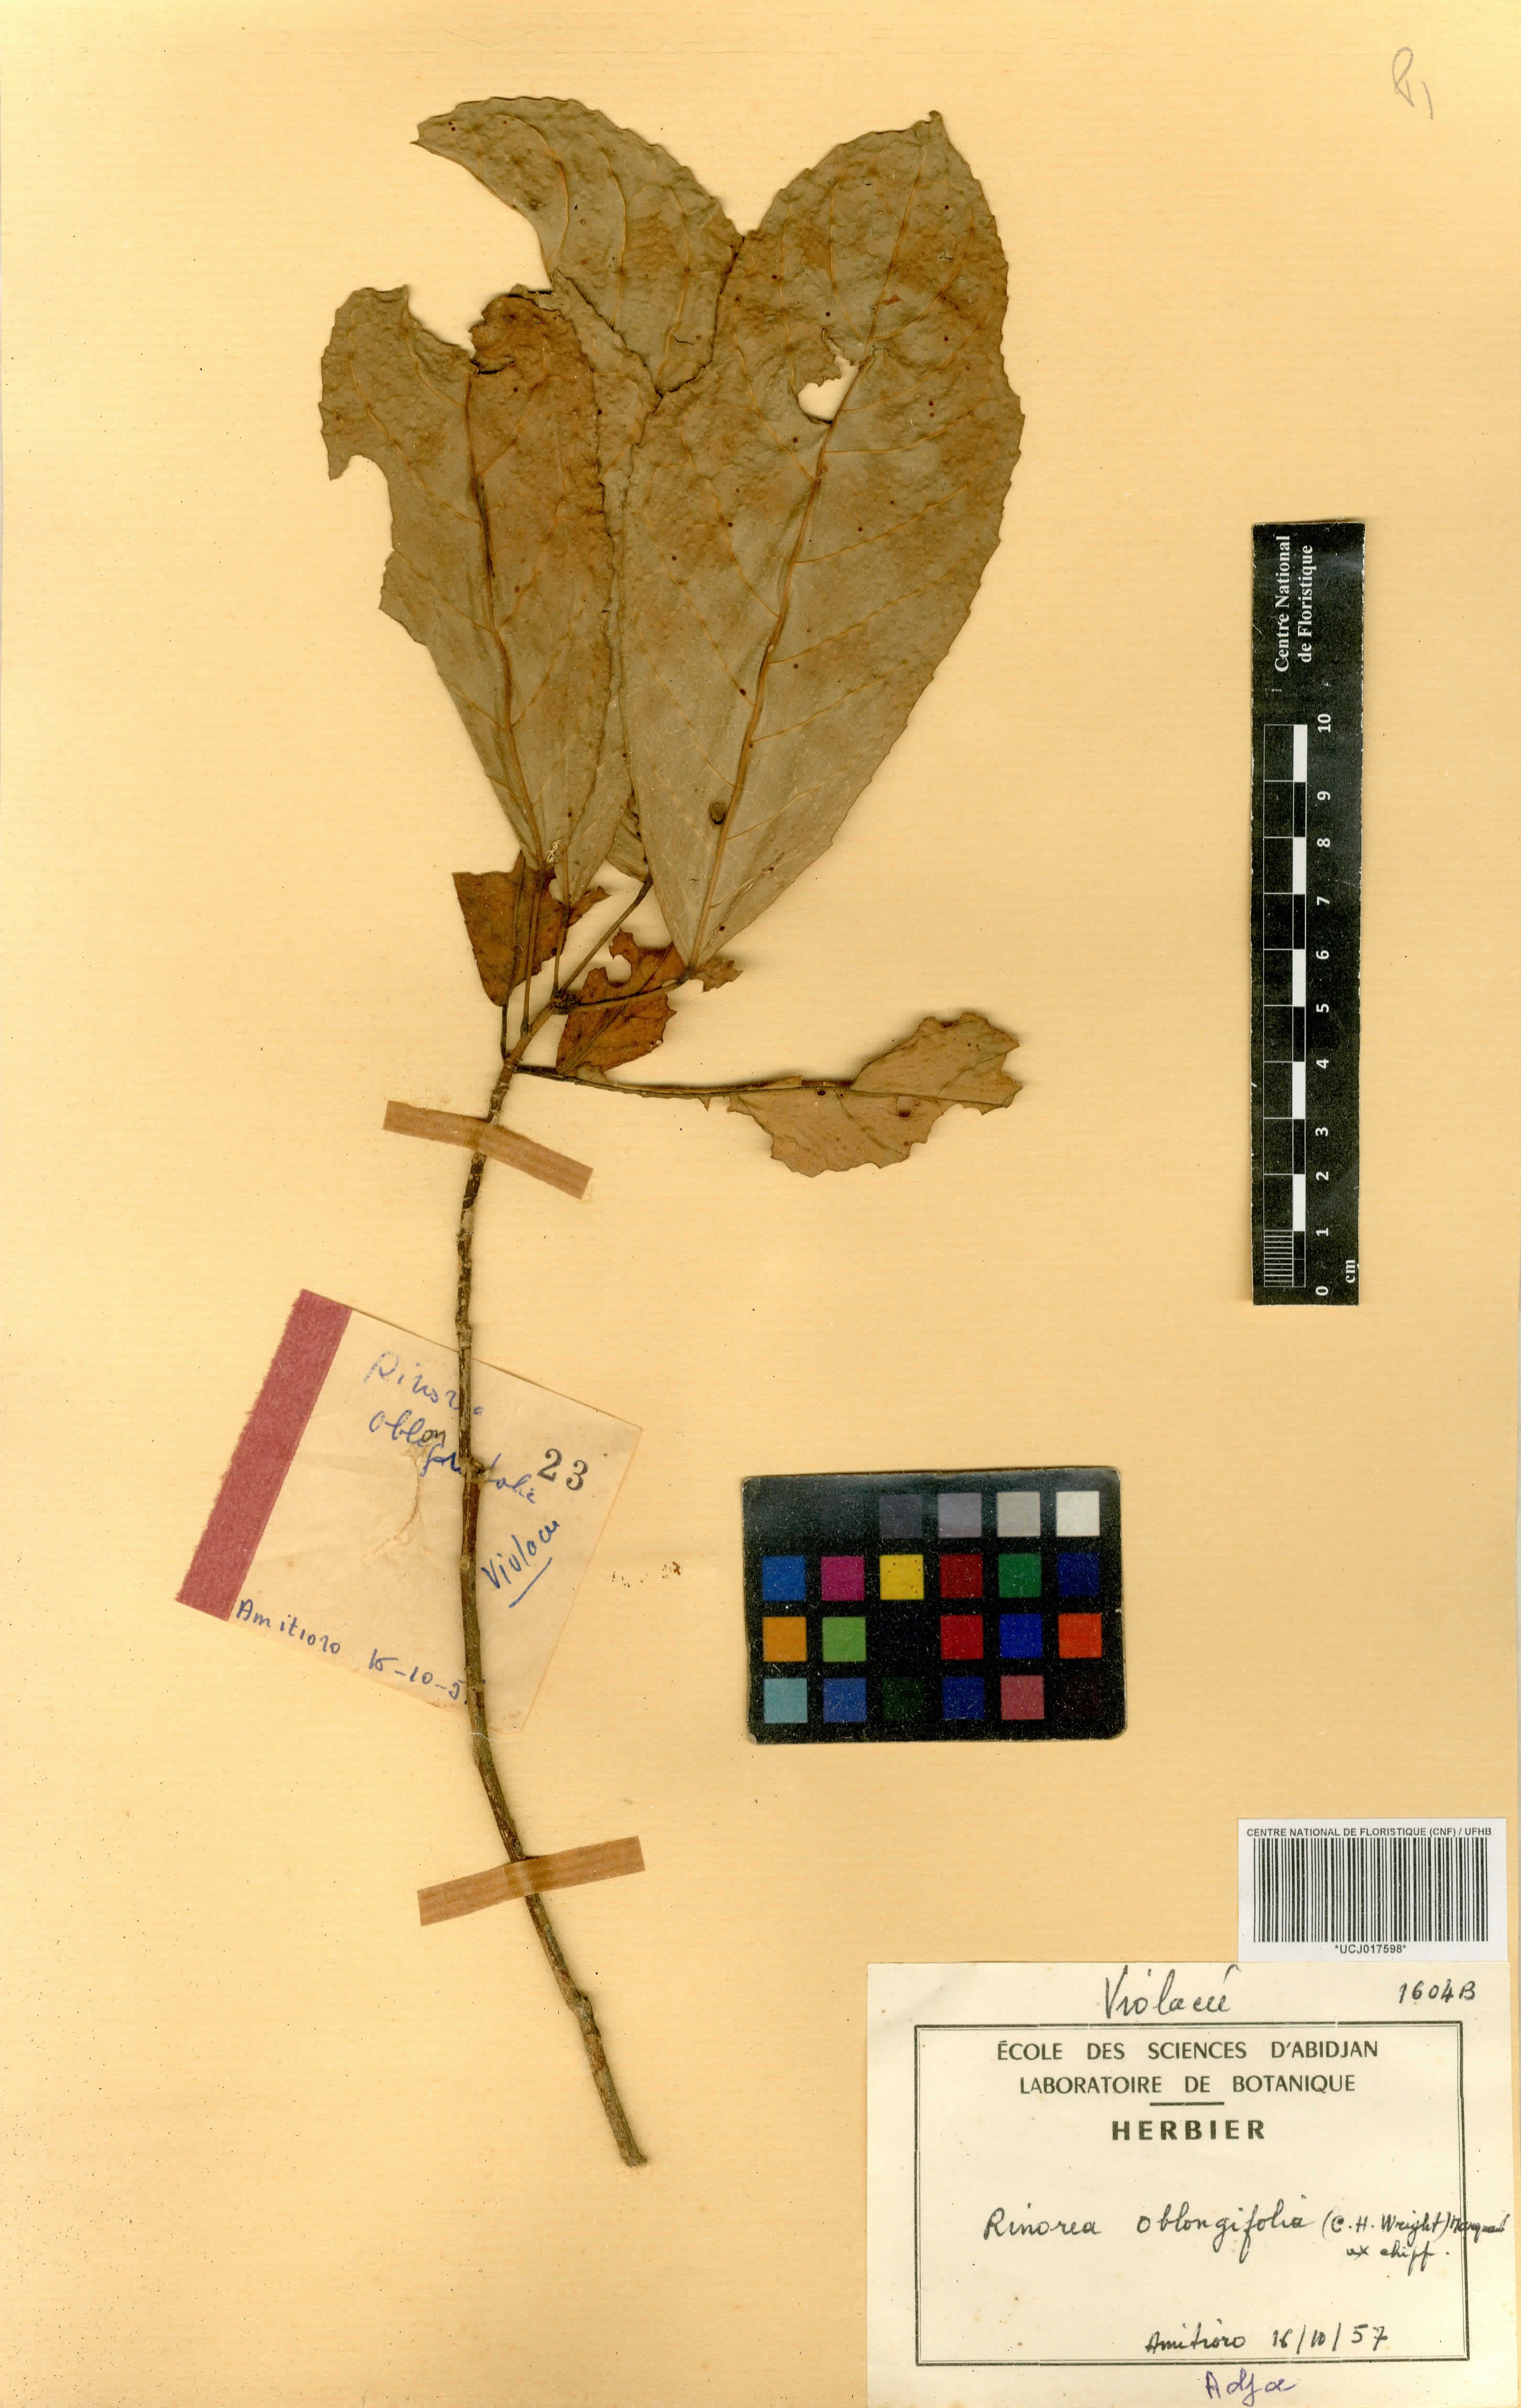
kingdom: Plantae
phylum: Tracheophyta
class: Magnoliopsida
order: Apiales
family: Pittosporaceae
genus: Marianthus
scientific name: Marianthus coeruleopunctatus
